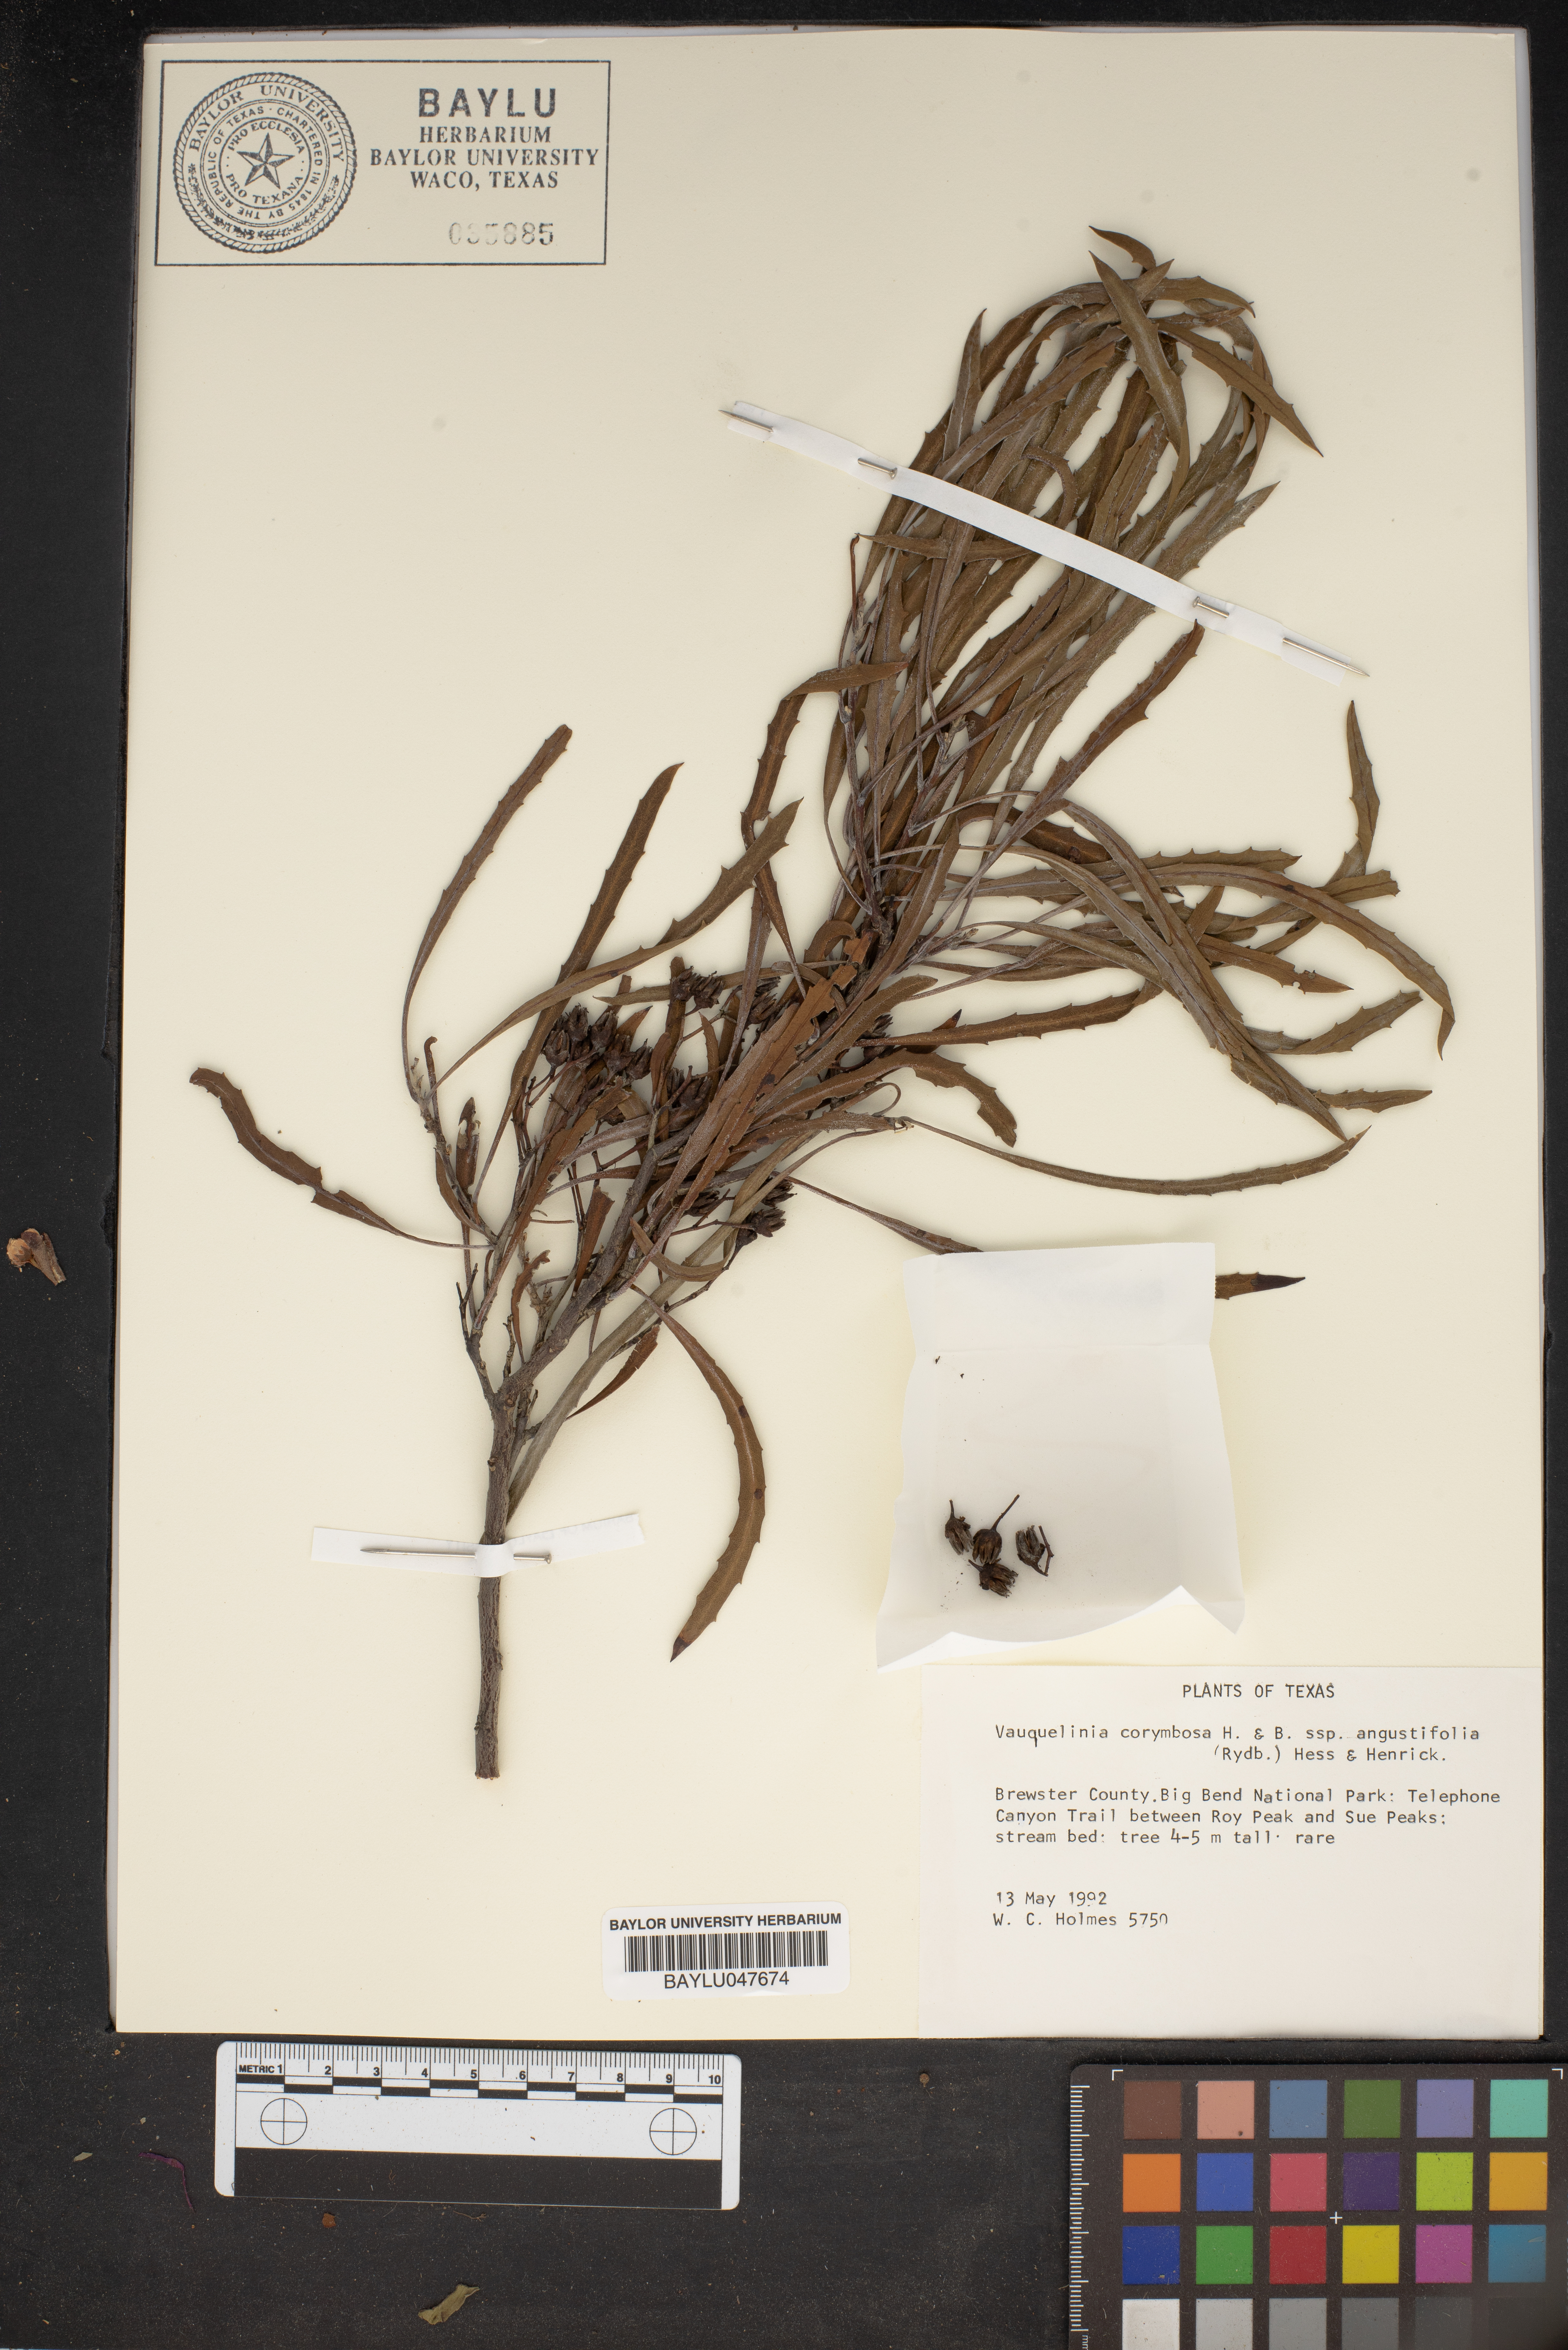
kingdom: Plantae
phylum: Tracheophyta
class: Magnoliopsida
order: Rosales
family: Rosaceae
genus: Vauquelinia
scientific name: Vauquelinia corymbosa
